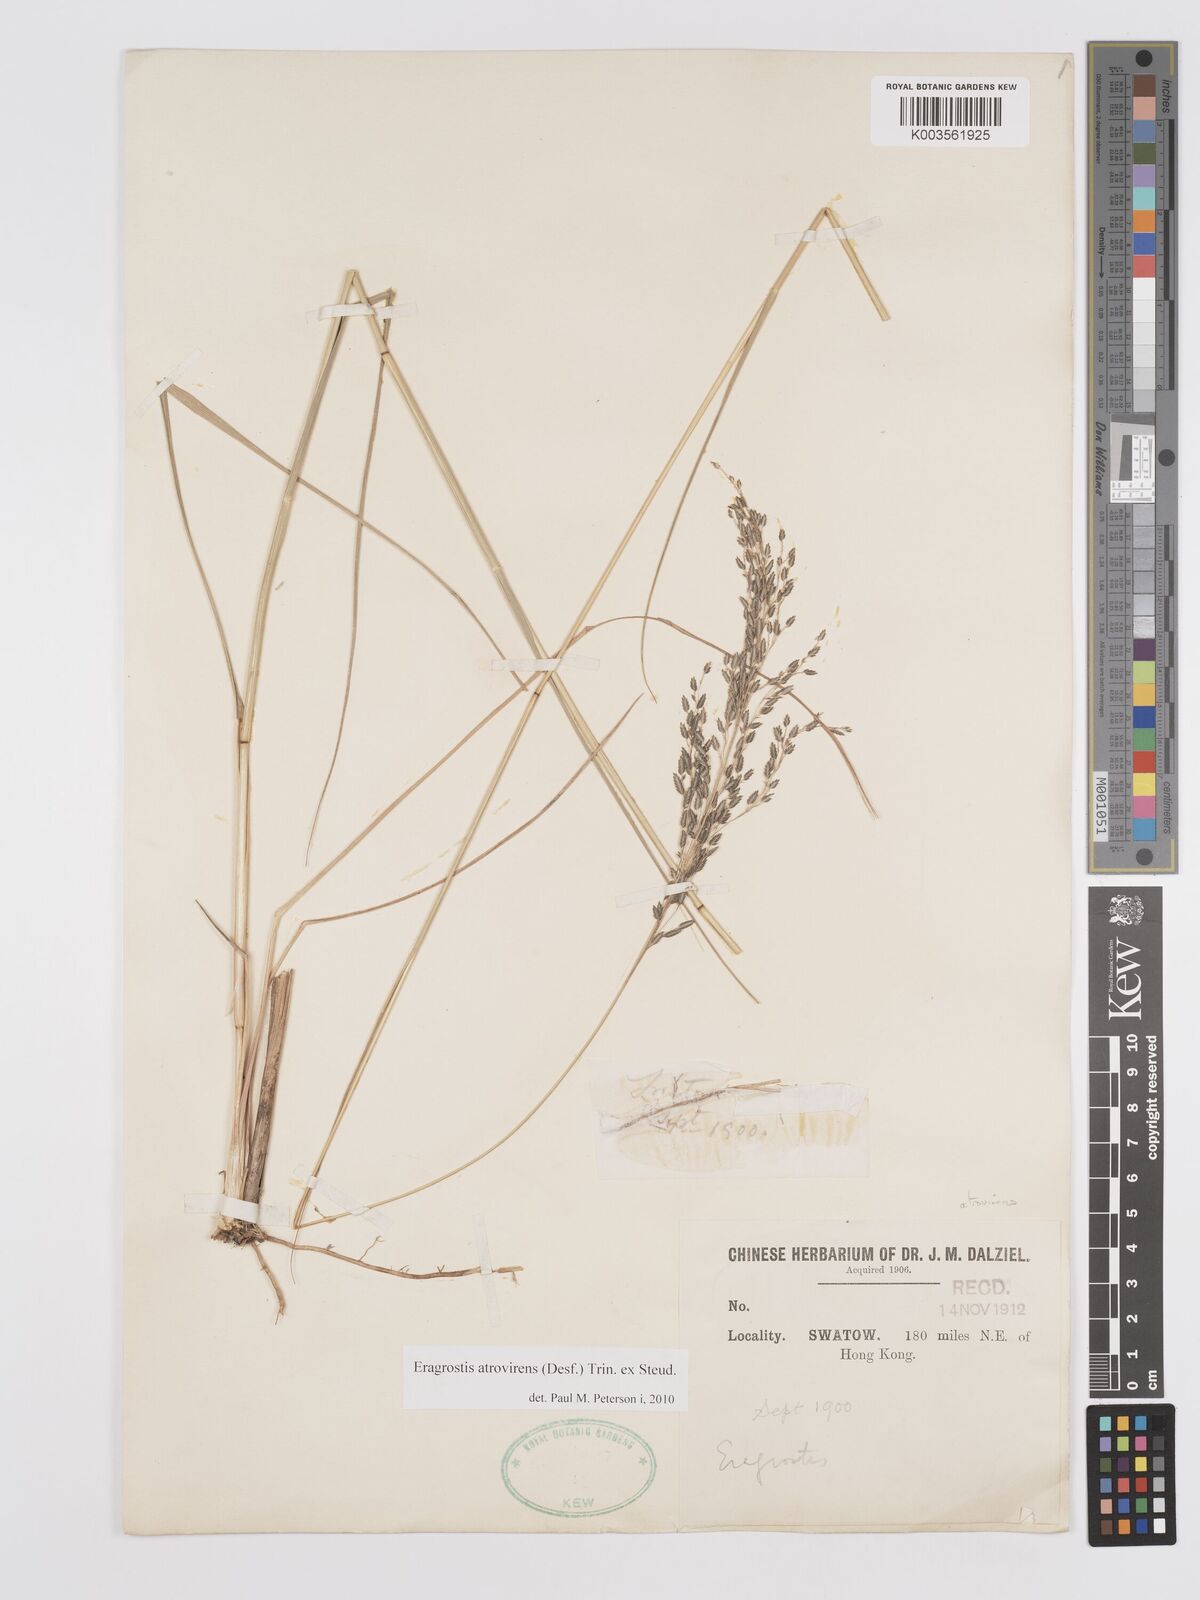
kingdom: Plantae
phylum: Tracheophyta
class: Liliopsida
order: Poales
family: Poaceae
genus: Eragrostis
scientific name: Eragrostis atrovirens
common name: Thalia lovegrass
